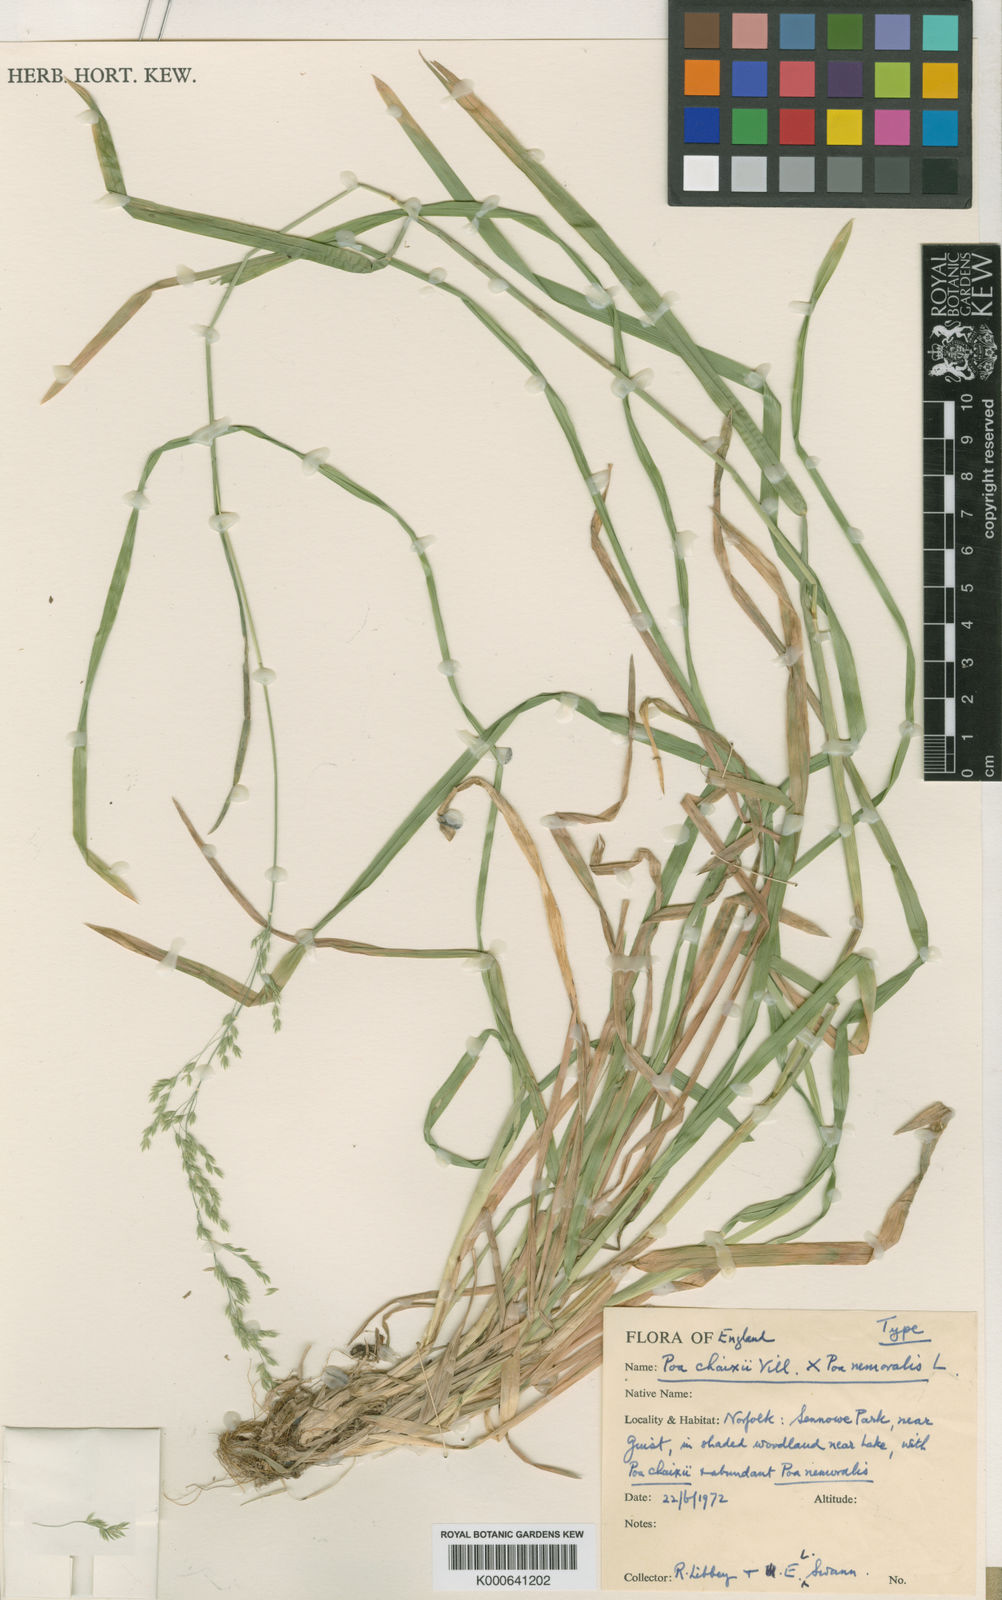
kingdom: Plantae
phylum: Tracheophyta
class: Liliopsida
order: Poales
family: Poaceae
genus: Poa
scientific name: Poa chaixii
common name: Broad-leaved meadow-grass
